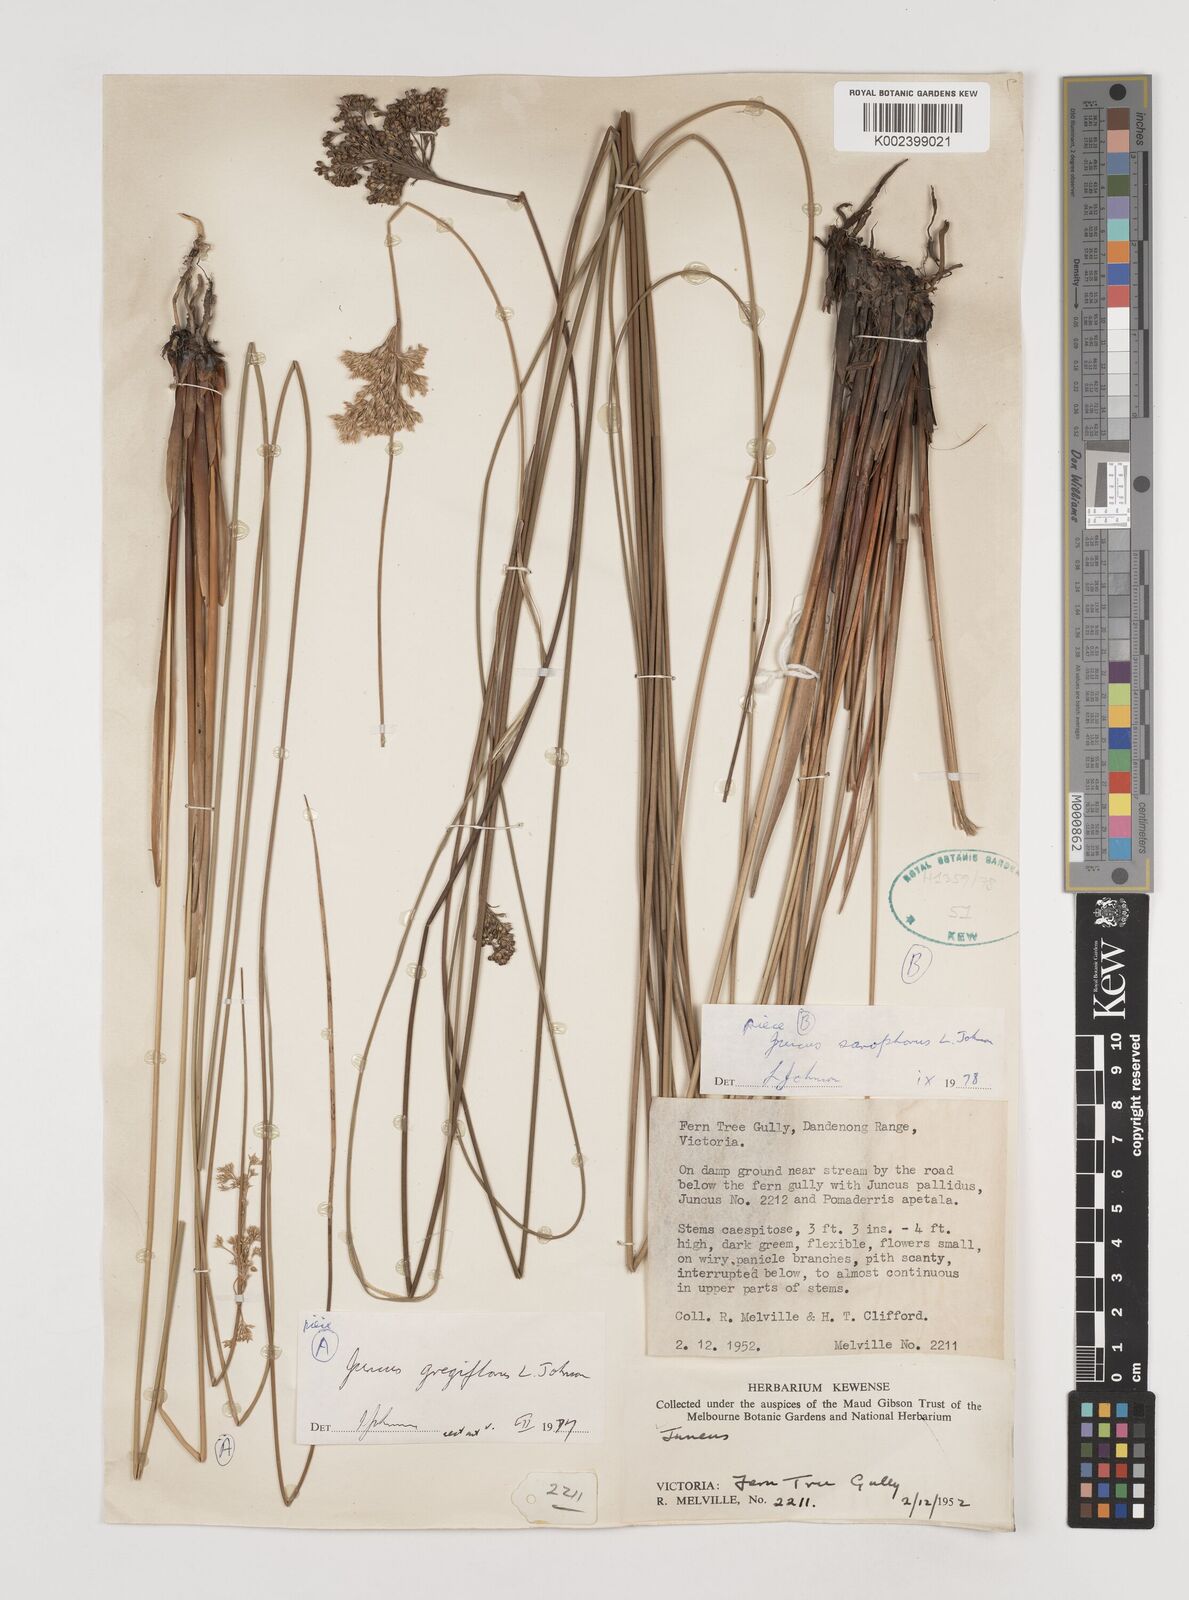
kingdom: Plantae
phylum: Tracheophyta
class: Liliopsida
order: Poales
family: Juncaceae
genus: Juncus
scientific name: Juncus sarophorus
